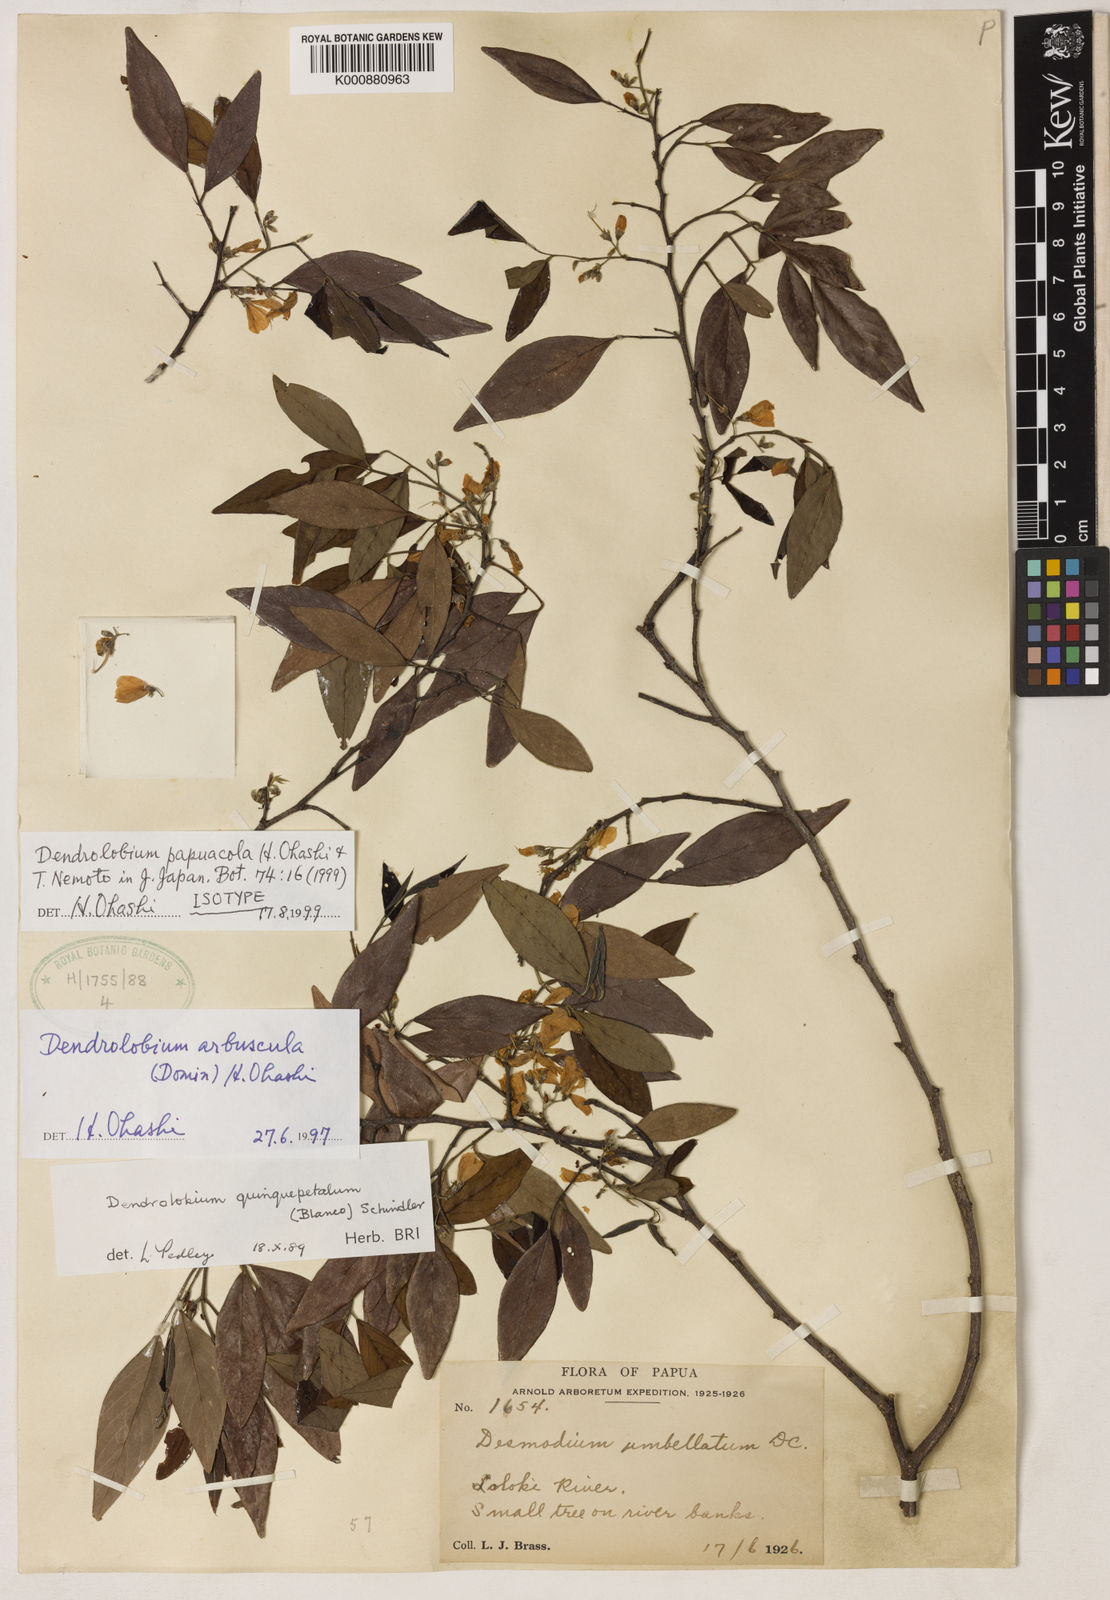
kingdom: Plantae
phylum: Tracheophyta
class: Magnoliopsida
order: Fabales
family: Fabaceae
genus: Dendrolobium
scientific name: Dendrolobium papuacola
